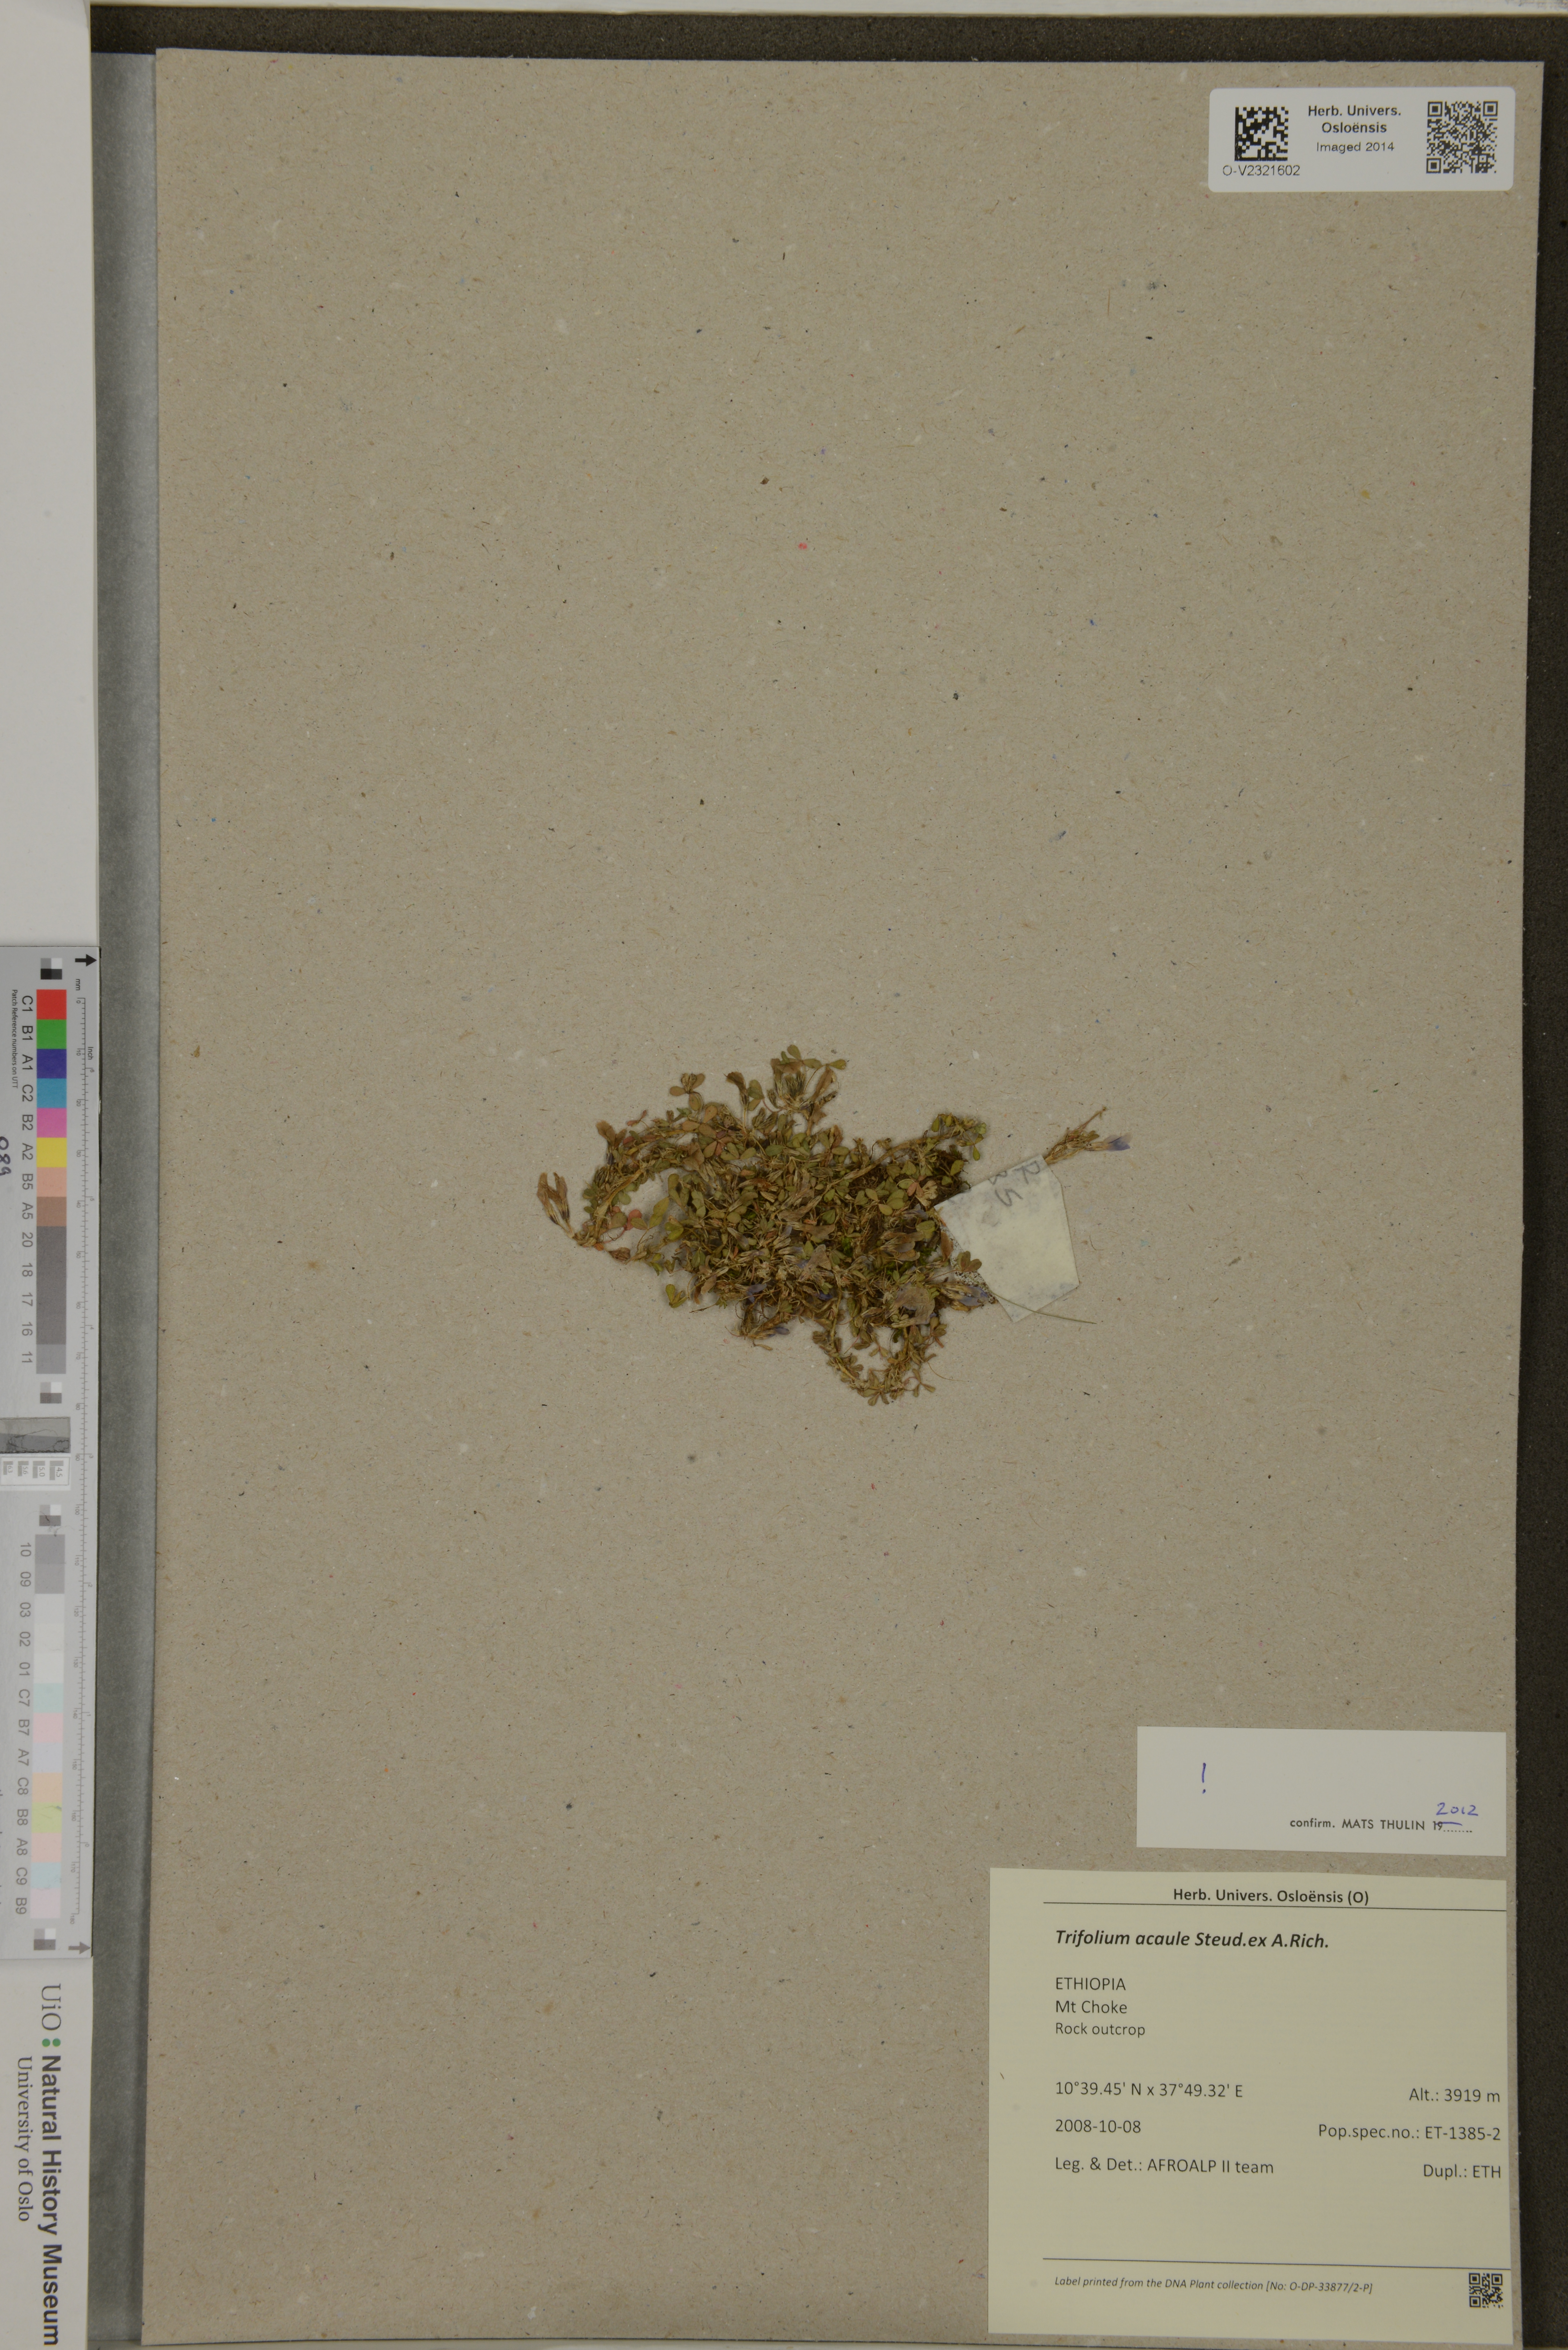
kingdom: Plantae
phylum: Tracheophyta
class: Magnoliopsida
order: Fabales
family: Fabaceae
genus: Trifolium
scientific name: Trifolium acaule
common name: Stemless clover
